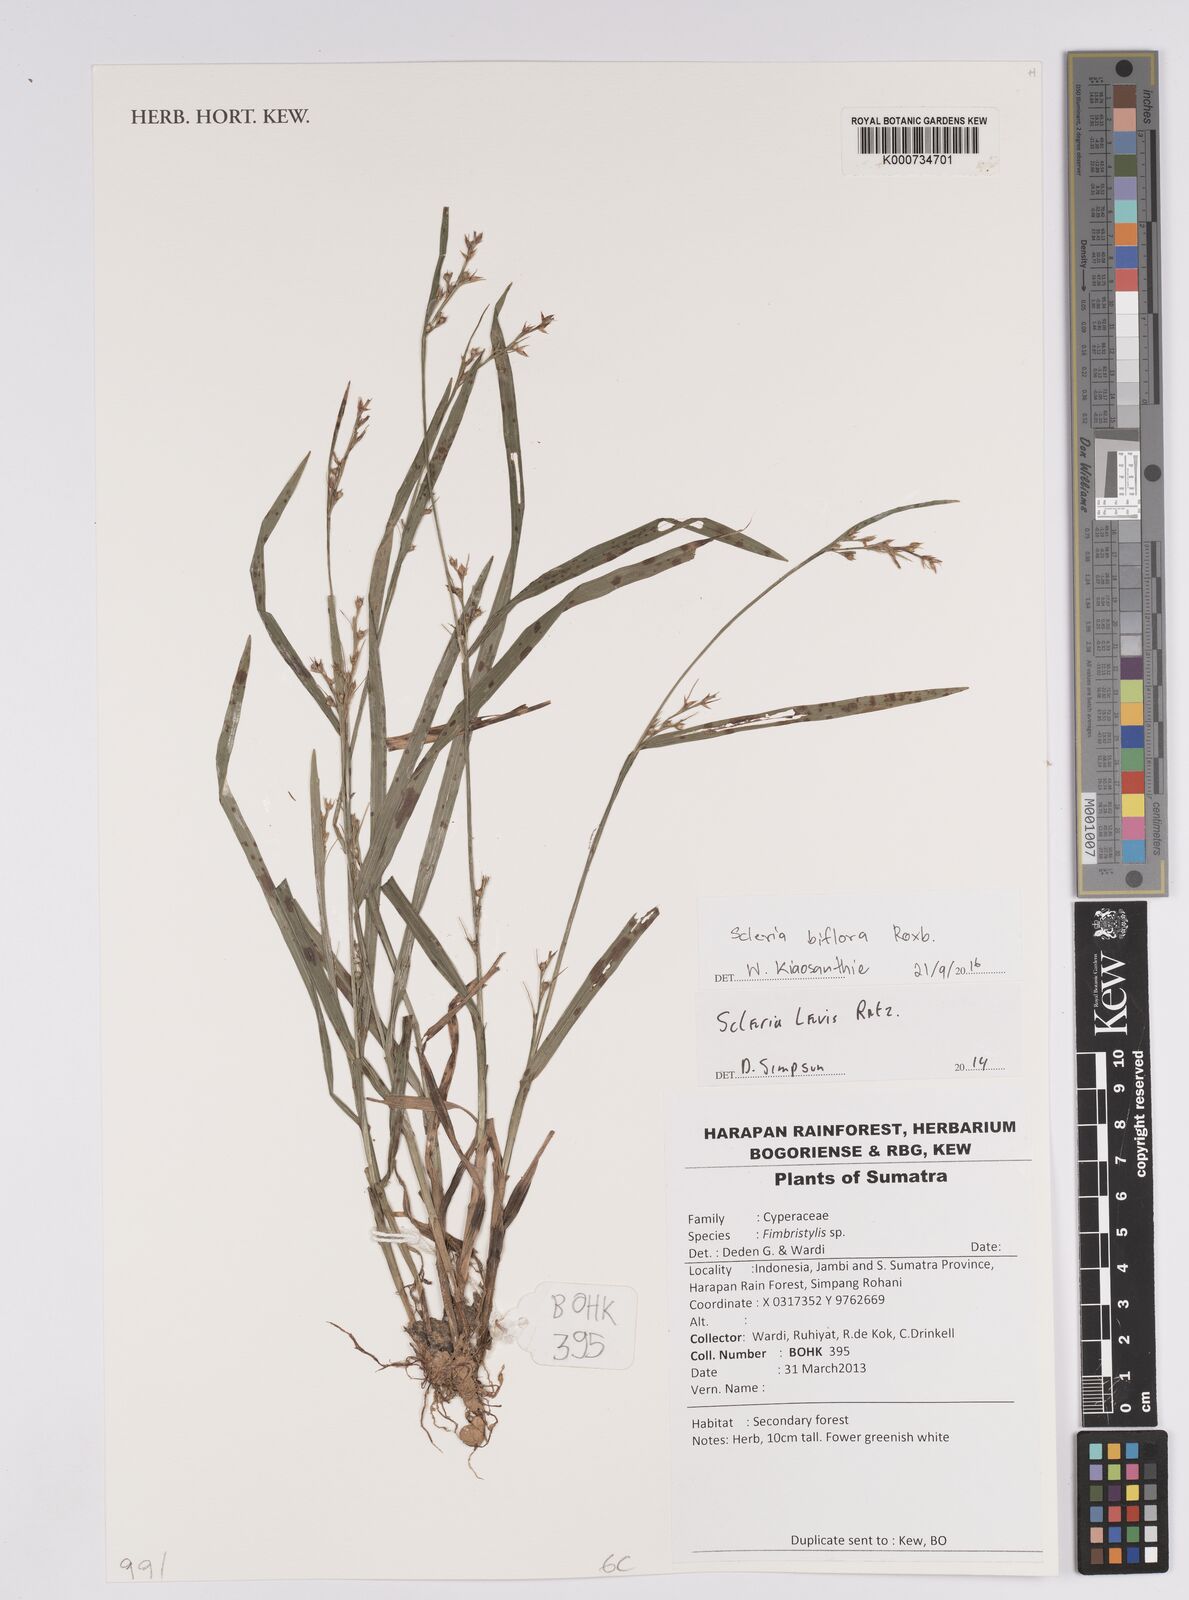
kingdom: Plantae
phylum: Tracheophyta
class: Liliopsida
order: Poales
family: Cyperaceae
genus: Scleria
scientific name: Scleria biflora
